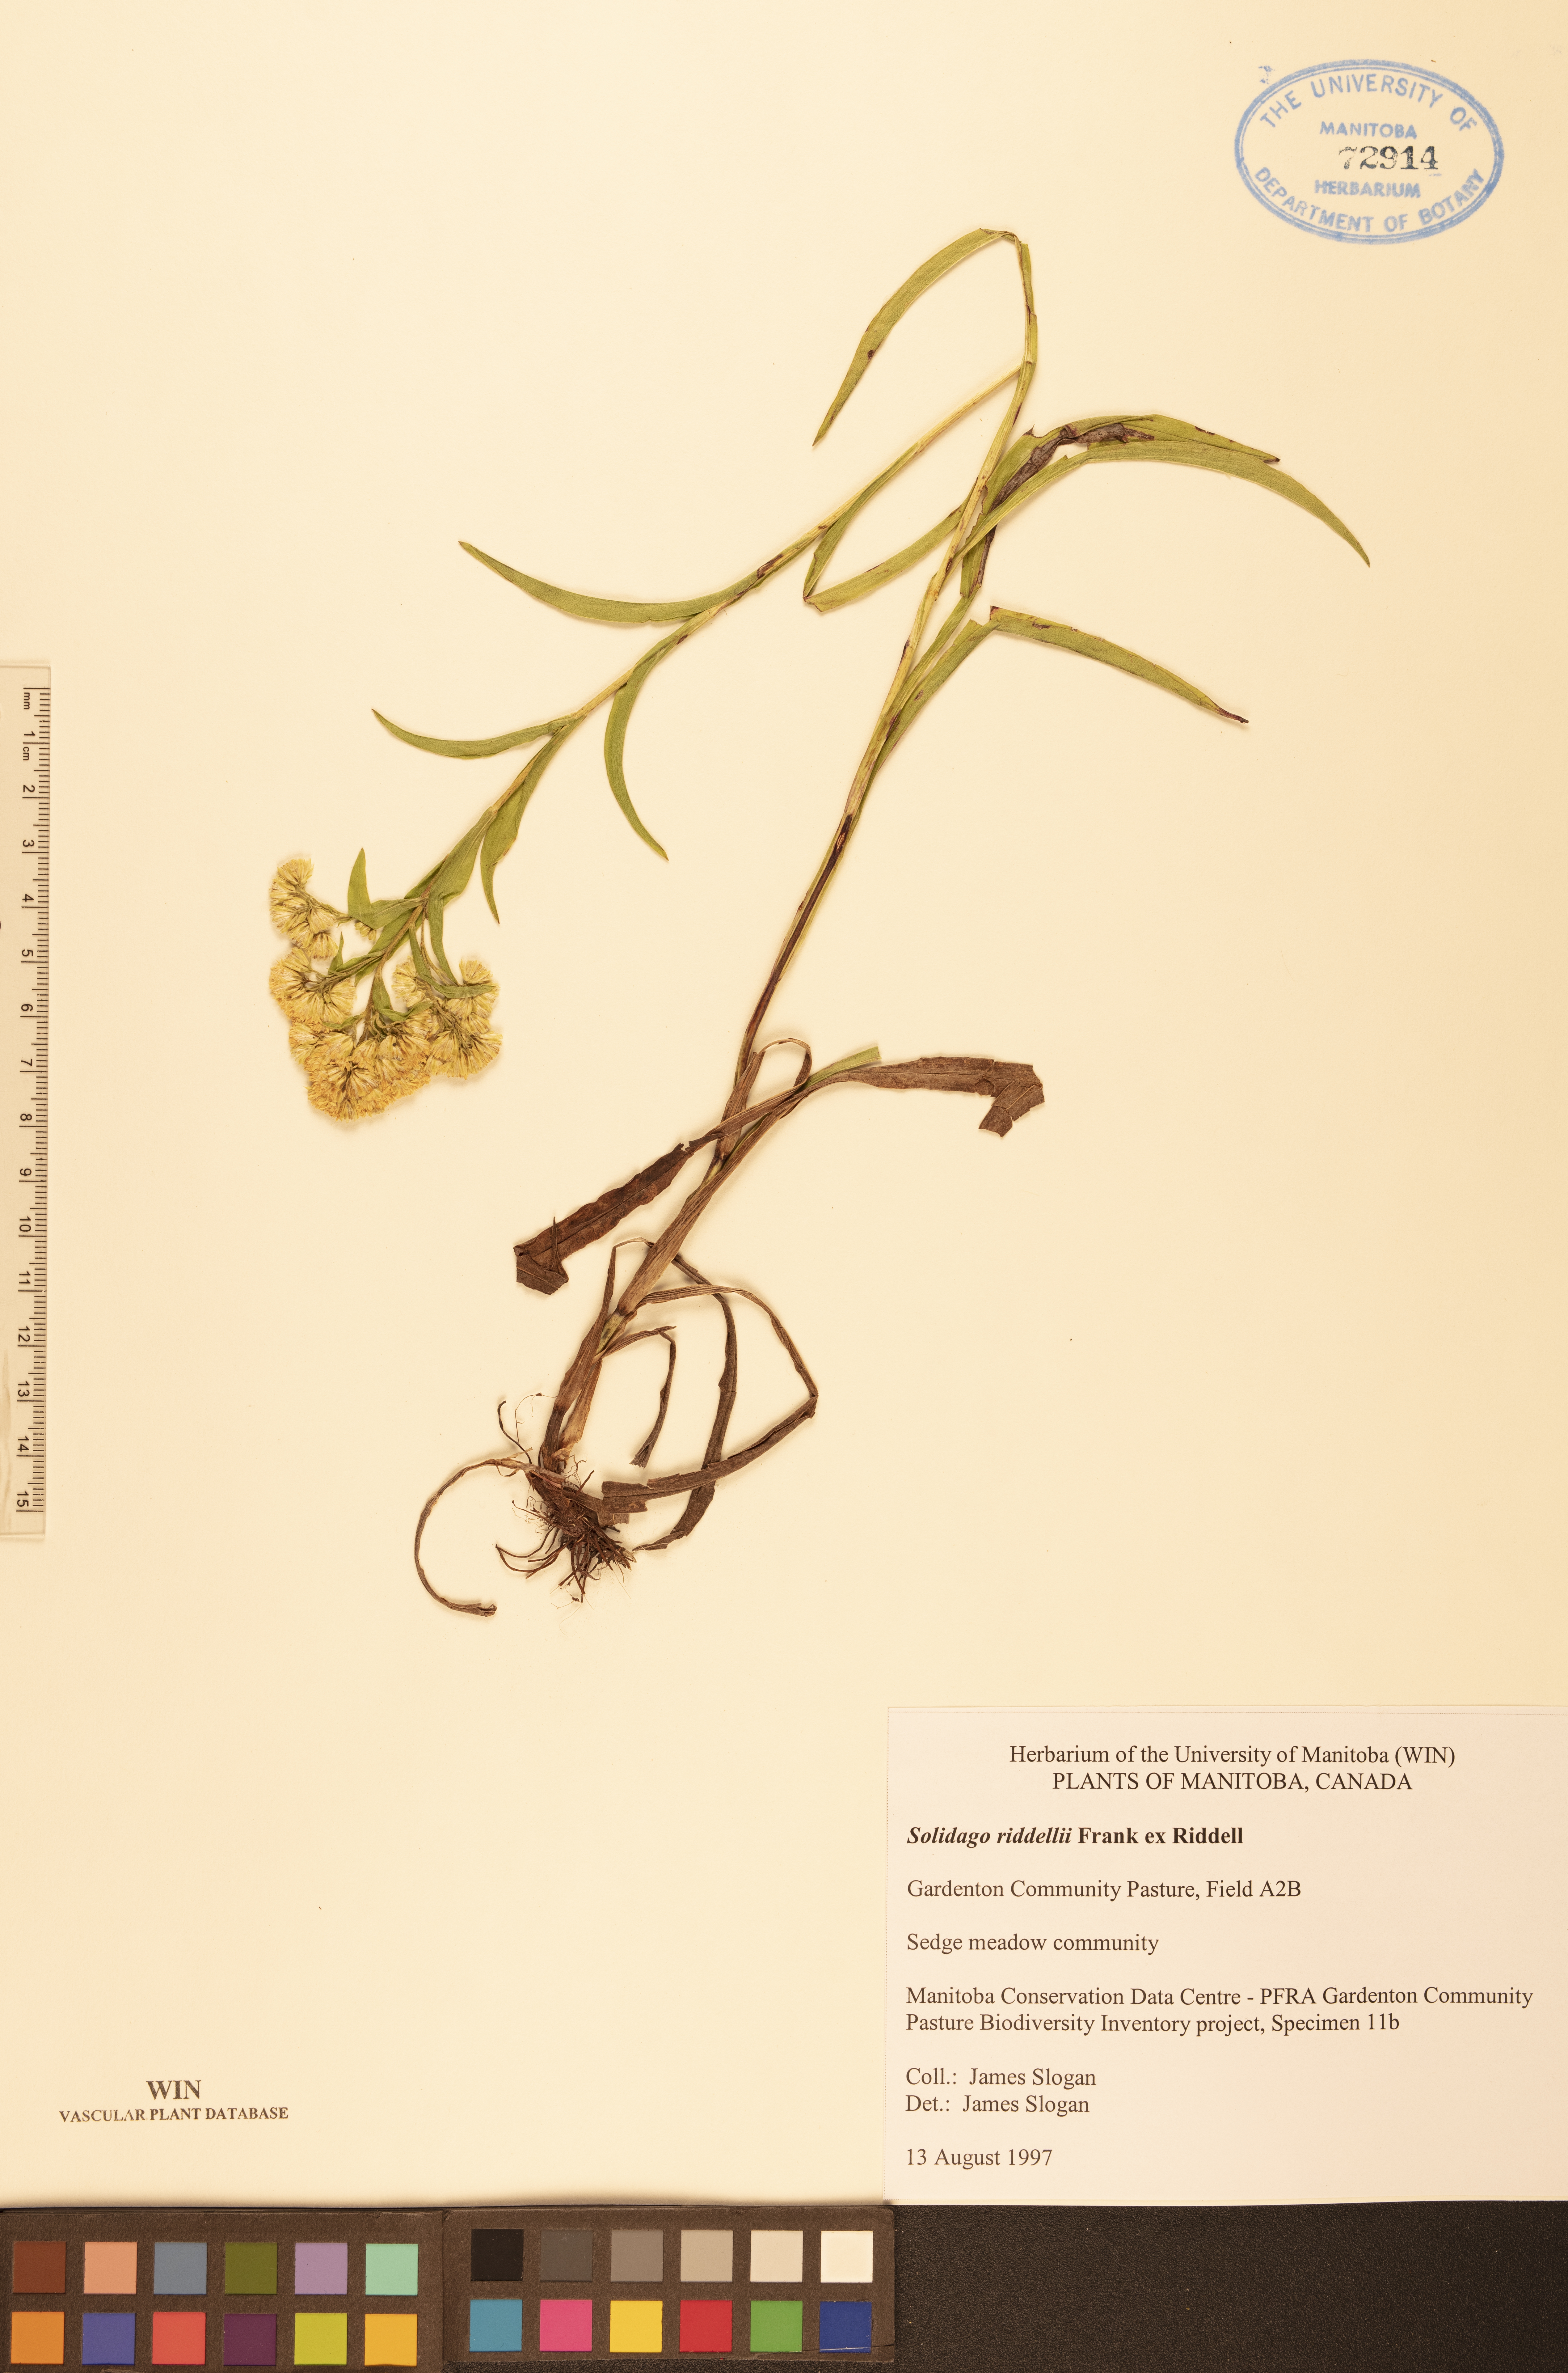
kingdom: Plantae
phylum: Tracheophyta
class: Magnoliopsida
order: Asterales
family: Asteraceae
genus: Solidago
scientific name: Solidago riddellii
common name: Riddell's goldenrod
